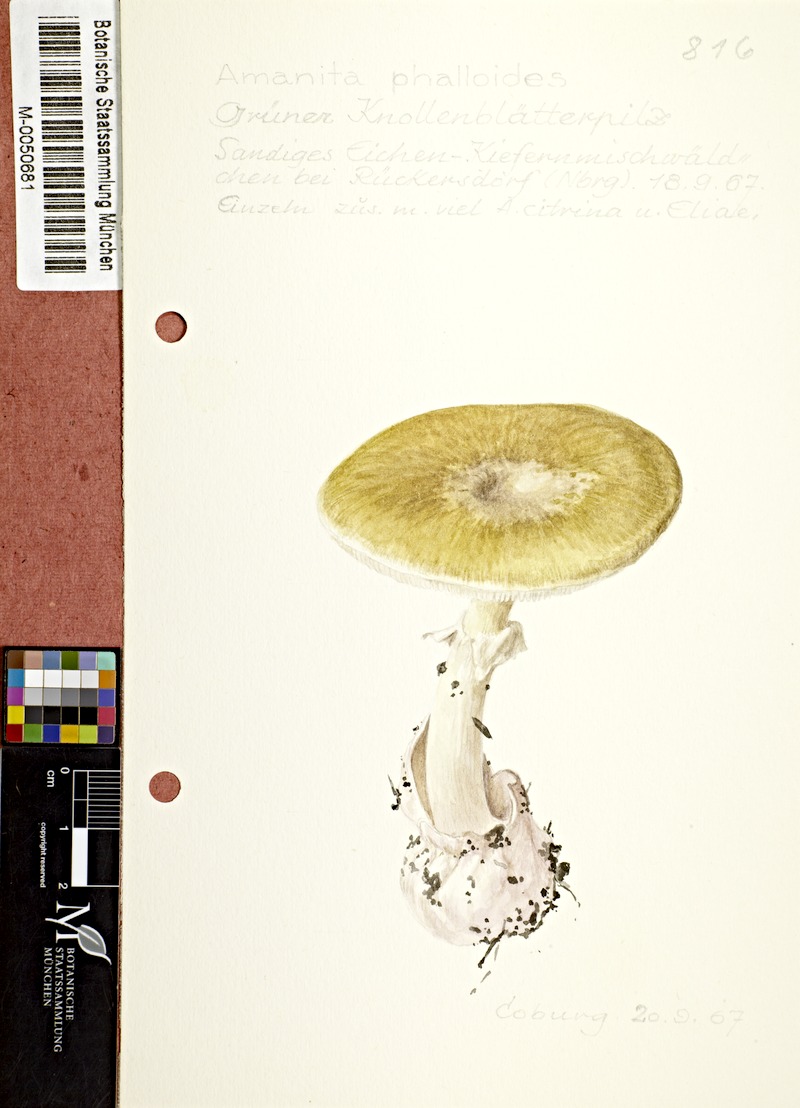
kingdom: Fungi
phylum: Basidiomycota
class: Agaricomycetes
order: Agaricales
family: Amanitaceae
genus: Amanita
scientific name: Amanita phalloides
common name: Death cap
